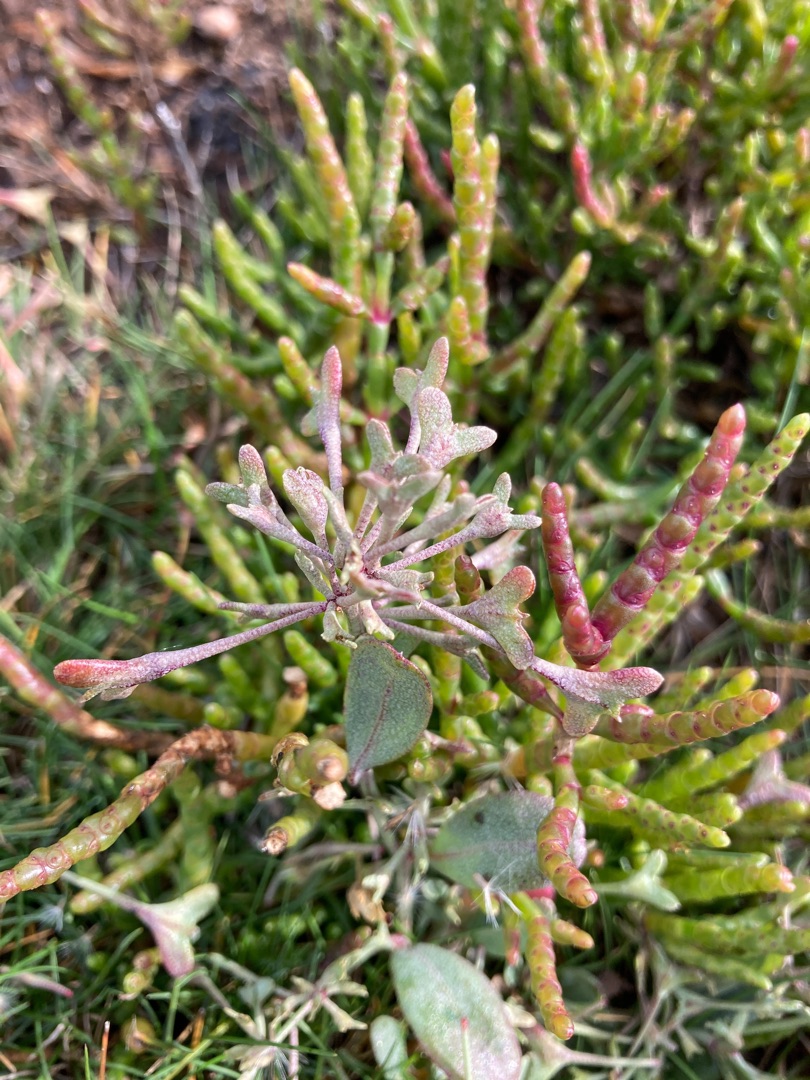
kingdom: Plantae
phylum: Tracheophyta
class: Magnoliopsida
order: Caryophyllales
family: Amaranthaceae
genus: Halimione
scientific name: Halimione pedunculata
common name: Stilket kilebæger
